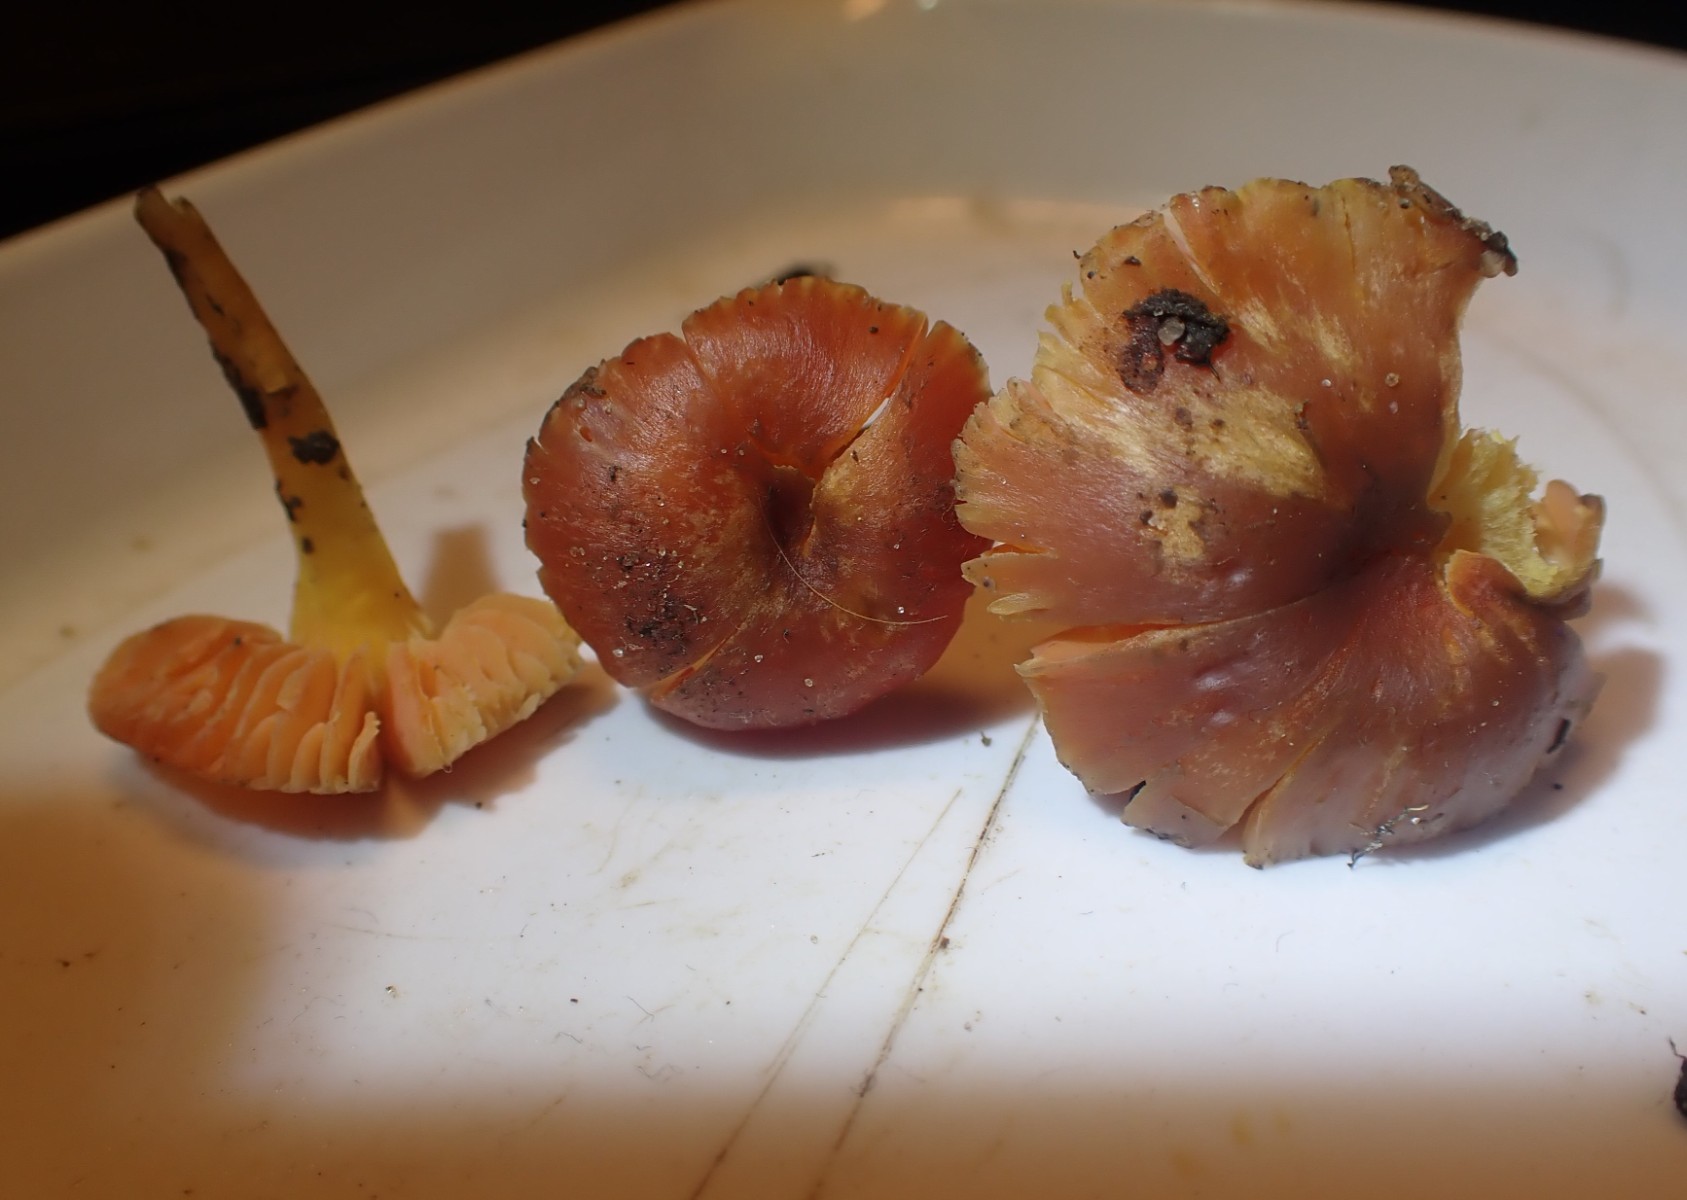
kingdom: Fungi
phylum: Basidiomycota
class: Agaricomycetes
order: Agaricales
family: Hygrophoraceae
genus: Hygrocybe
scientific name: Hygrocybe phaeococcinea
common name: sortdugget vokshat
